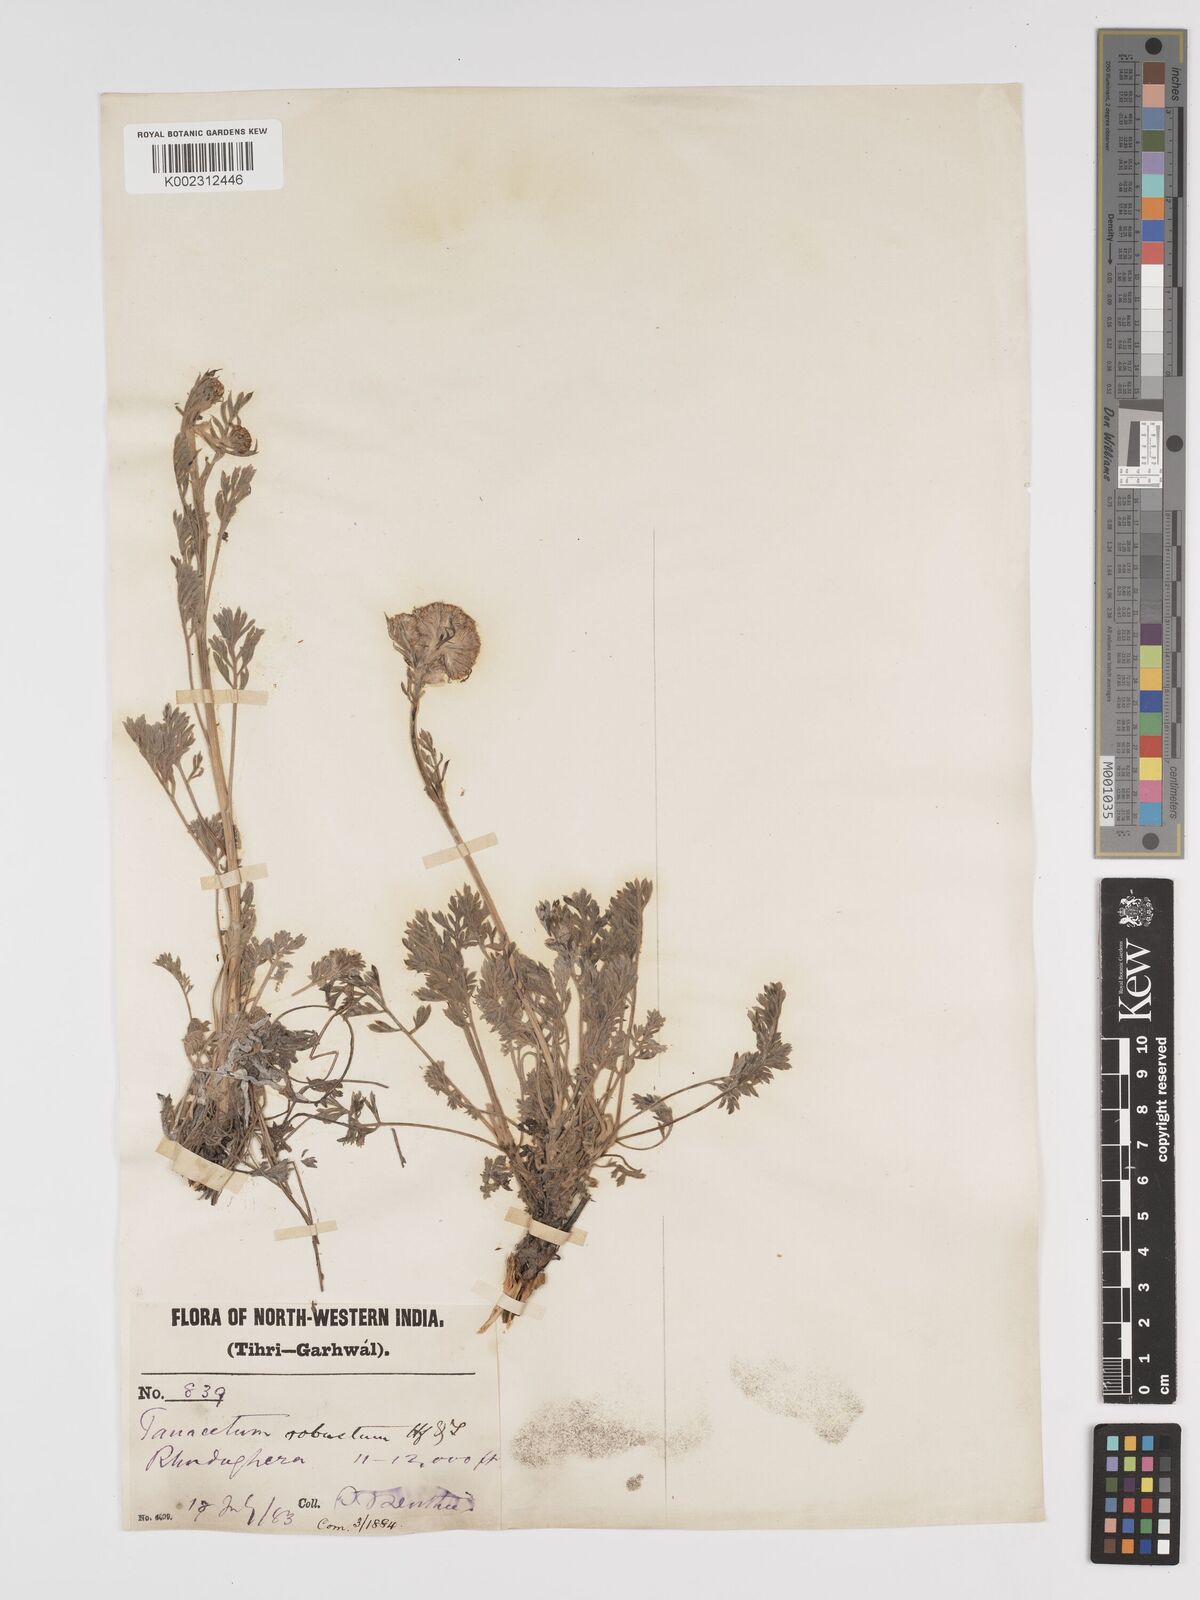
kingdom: Plantae
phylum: Tracheophyta
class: Magnoliopsida
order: Asterales
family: Asteraceae
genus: Tanacetum
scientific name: Tanacetum robustum
